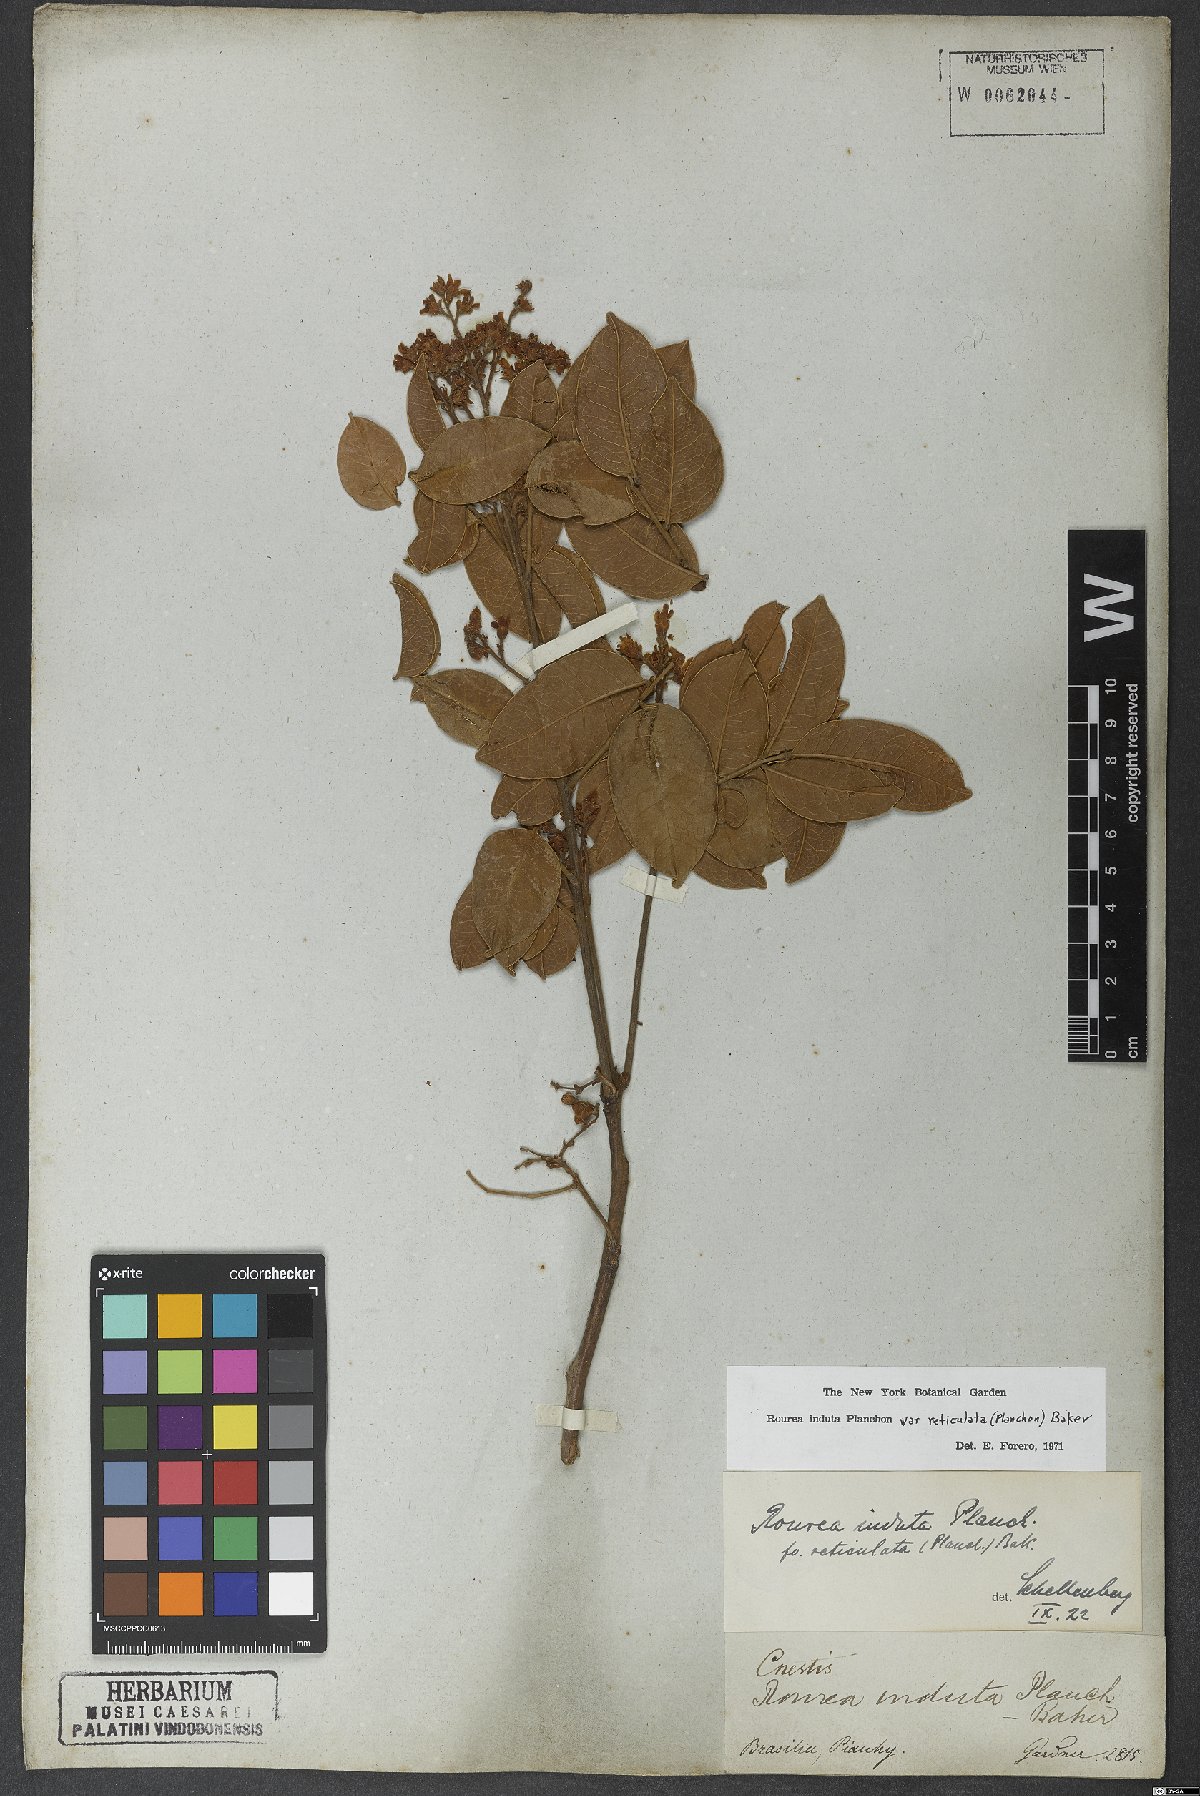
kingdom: Plantae
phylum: Tracheophyta
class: Magnoliopsida
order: Oxalidales
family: Connaraceae
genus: Rourea
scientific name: Rourea induta
